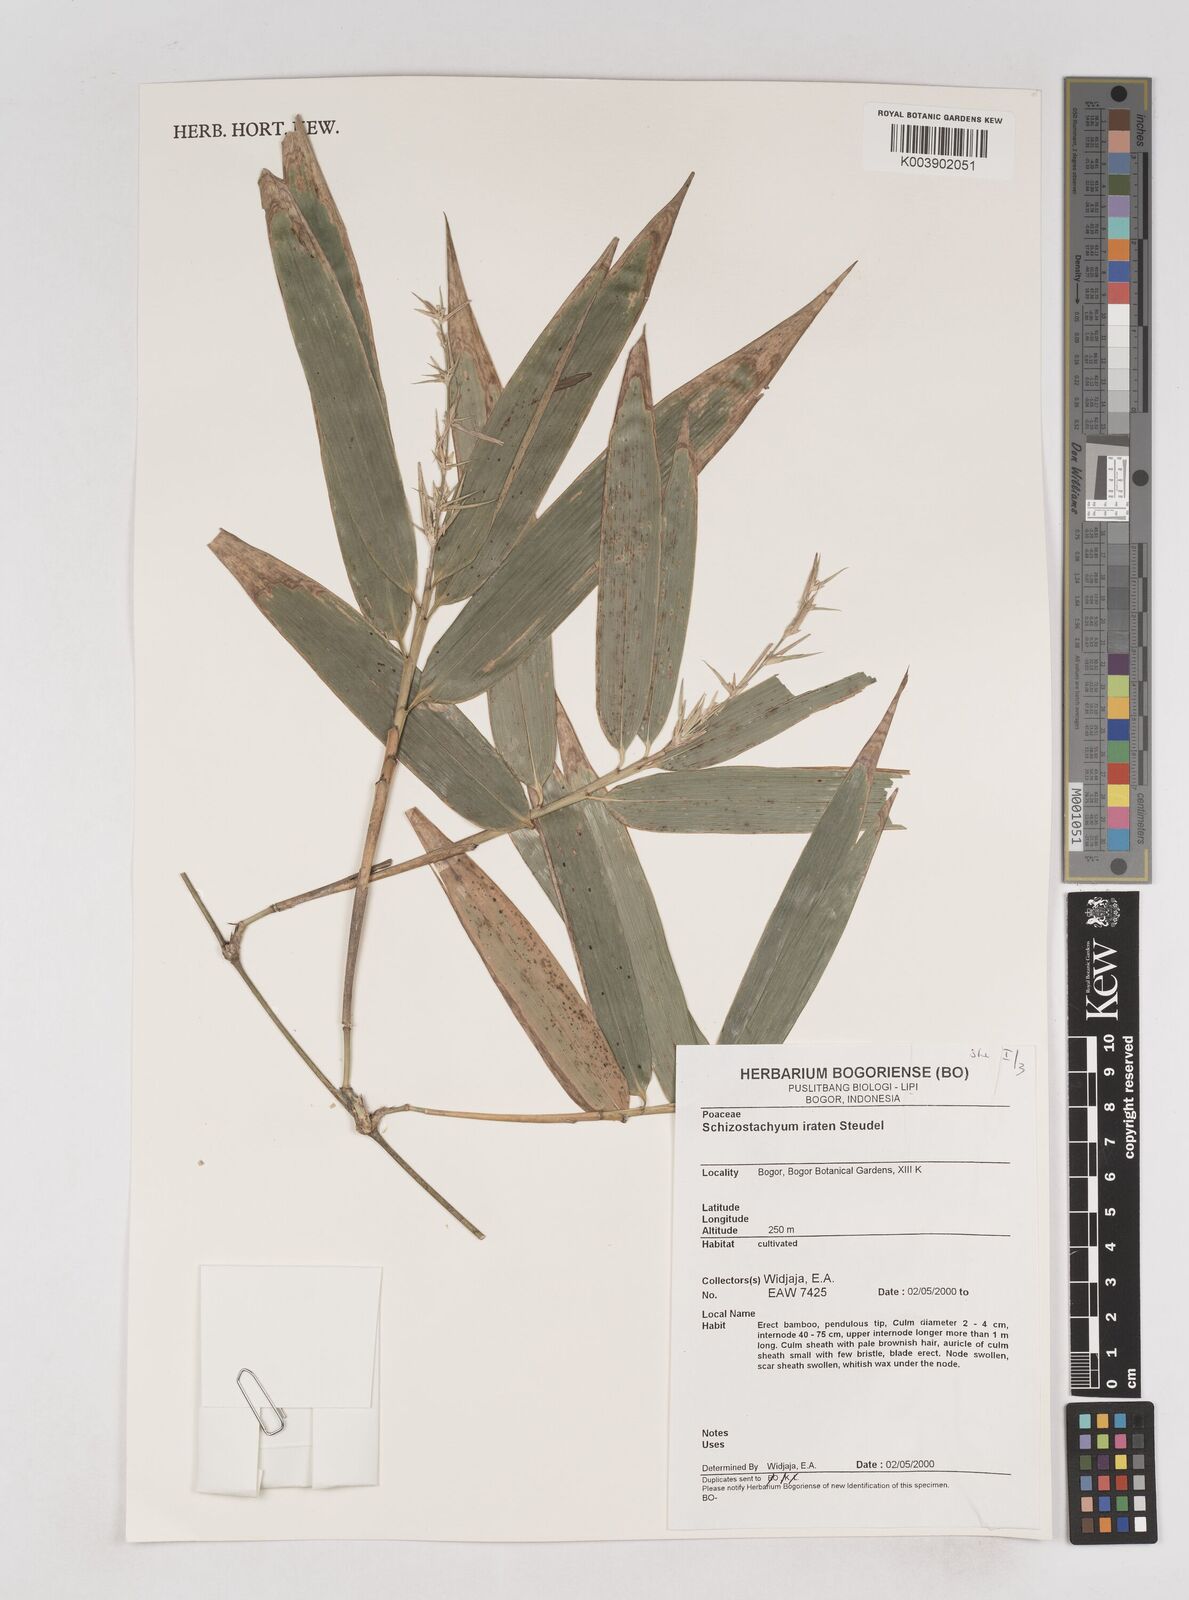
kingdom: Plantae
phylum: Tracheophyta
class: Liliopsida
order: Poales
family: Poaceae
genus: Schizostachyum
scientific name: Schizostachyum iraten
